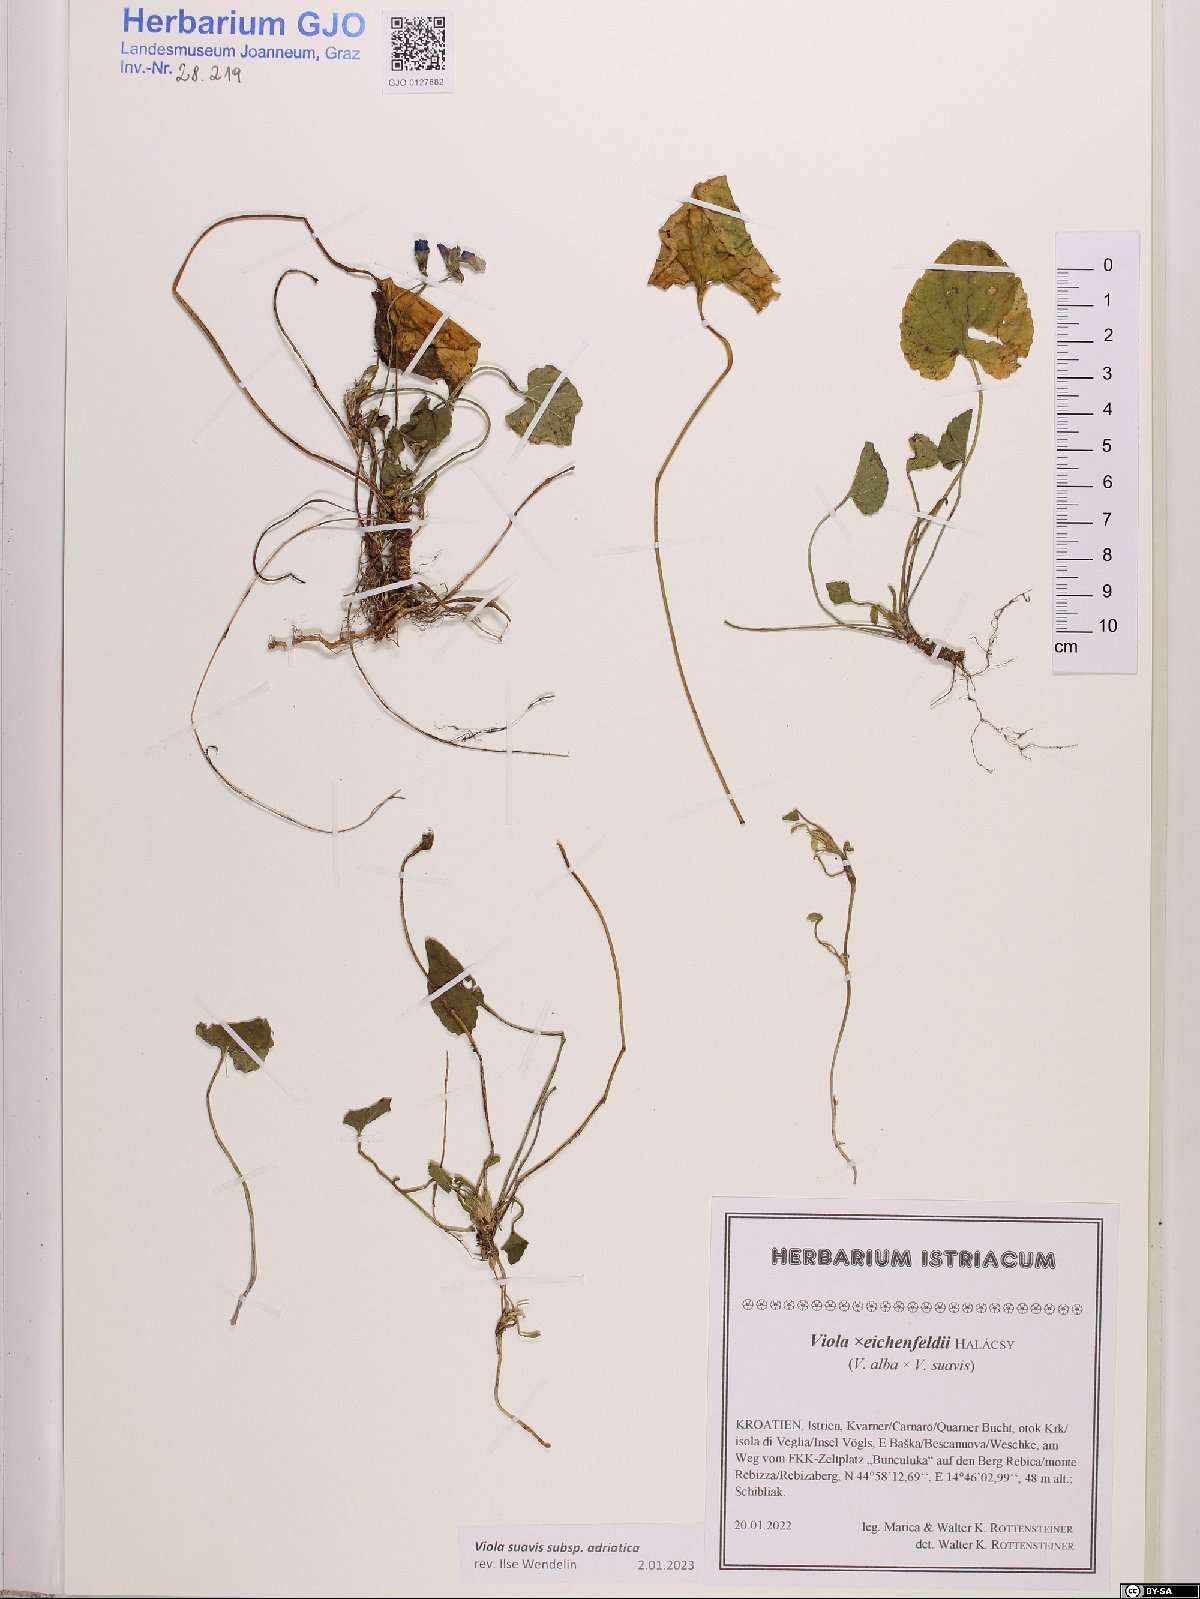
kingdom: Plantae
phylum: Tracheophyta
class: Magnoliopsida
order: Malpighiales
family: Violaceae
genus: Viola
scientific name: Viola suavis
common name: Russian violet
